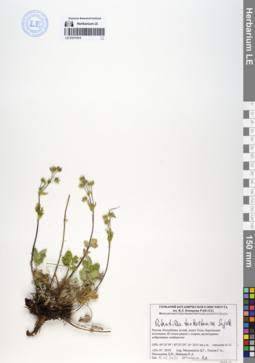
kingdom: Plantae
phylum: Tracheophyta
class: Magnoliopsida
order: Rosales
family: Rosaceae
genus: Potentilla
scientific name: Potentilla turkestanica
